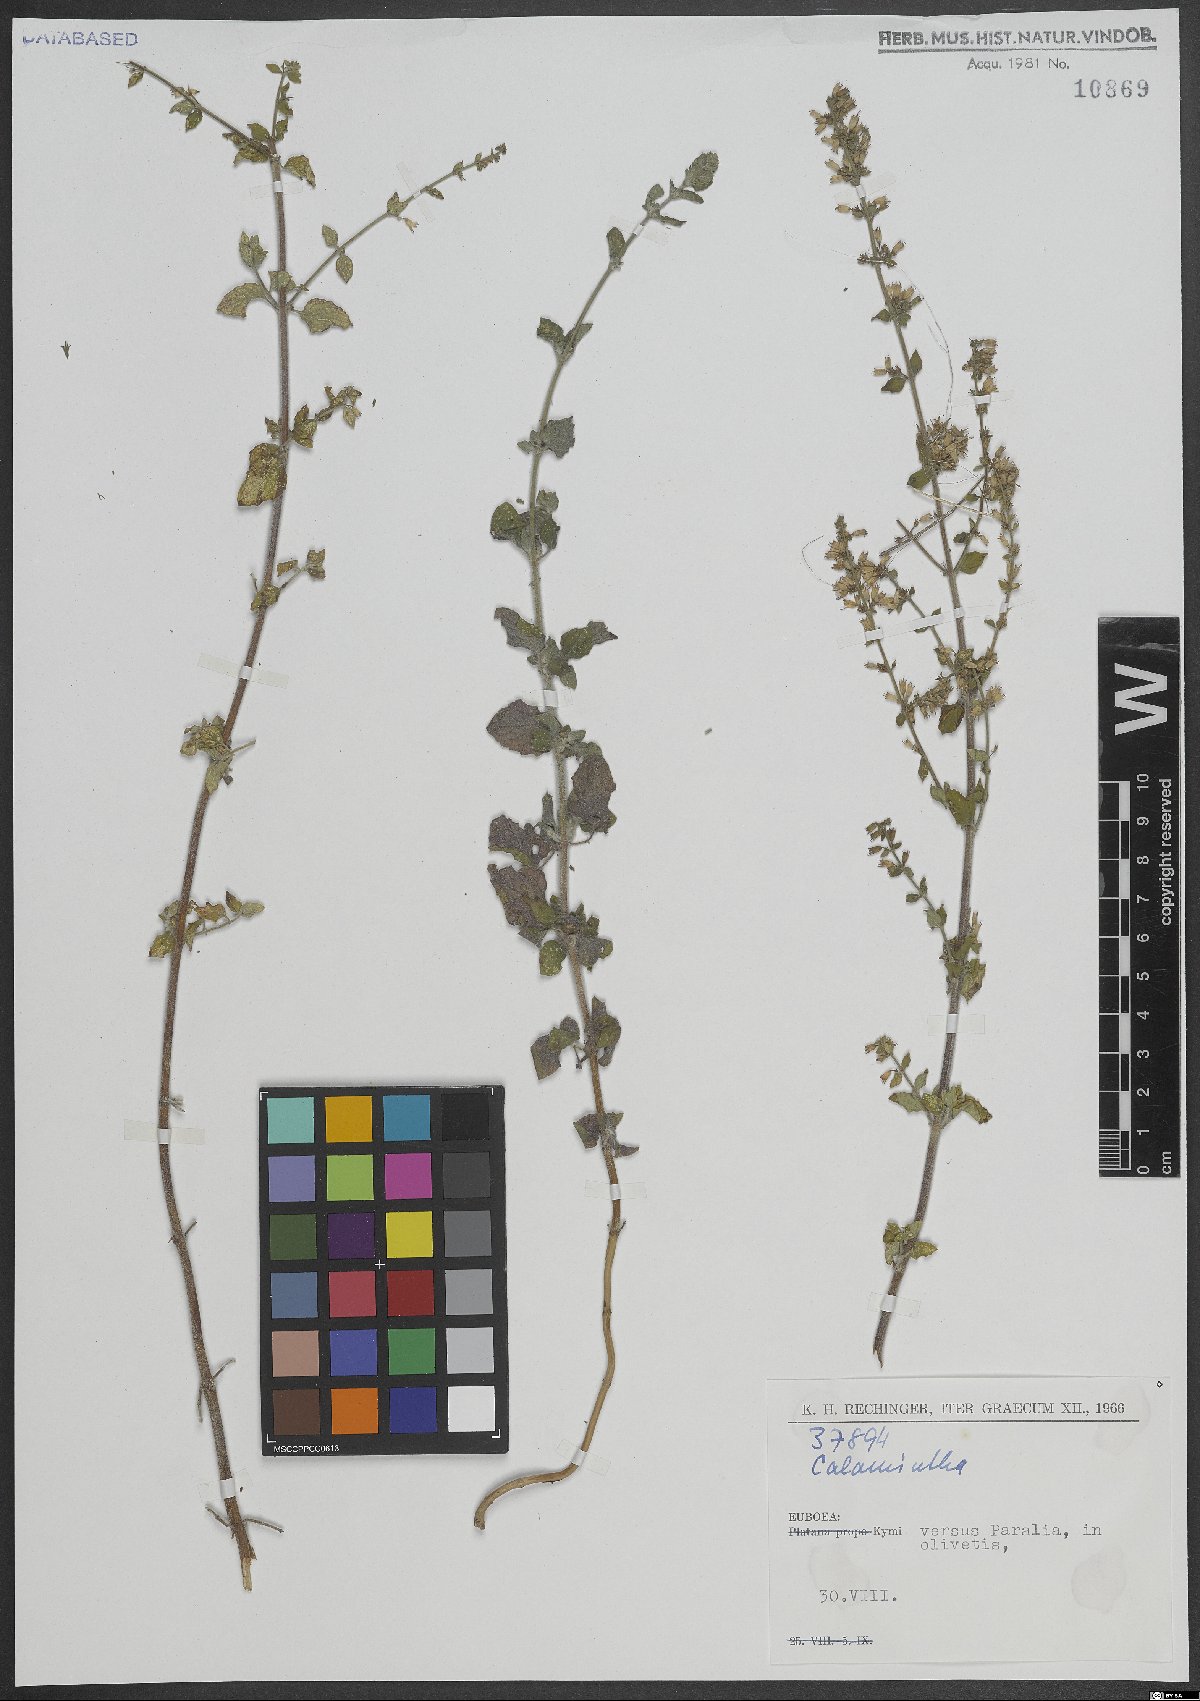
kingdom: Plantae
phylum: Tracheophyta
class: Magnoliopsida
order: Lamiales
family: Lamiaceae
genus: Calamintha
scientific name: Calamintha
